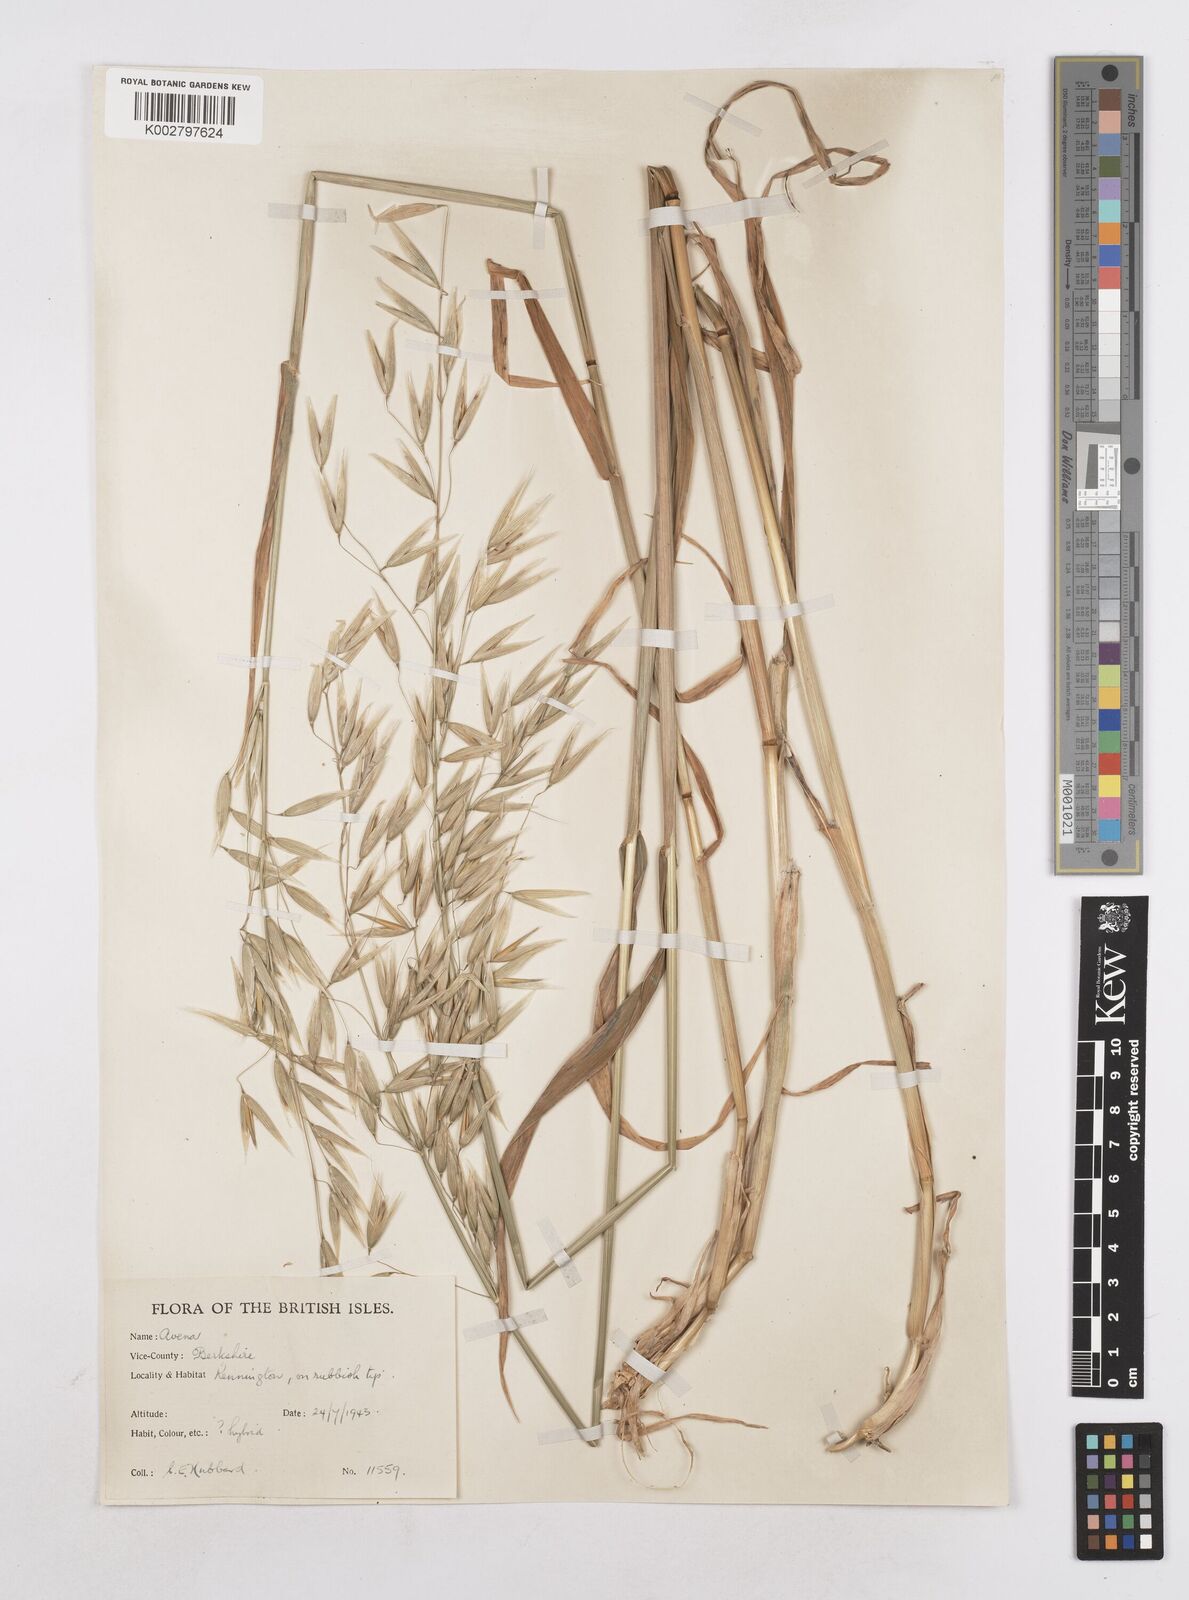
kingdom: Plantae
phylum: Tracheophyta
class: Liliopsida
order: Poales
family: Poaceae
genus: Avena
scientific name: Avena sativa
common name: Oat
